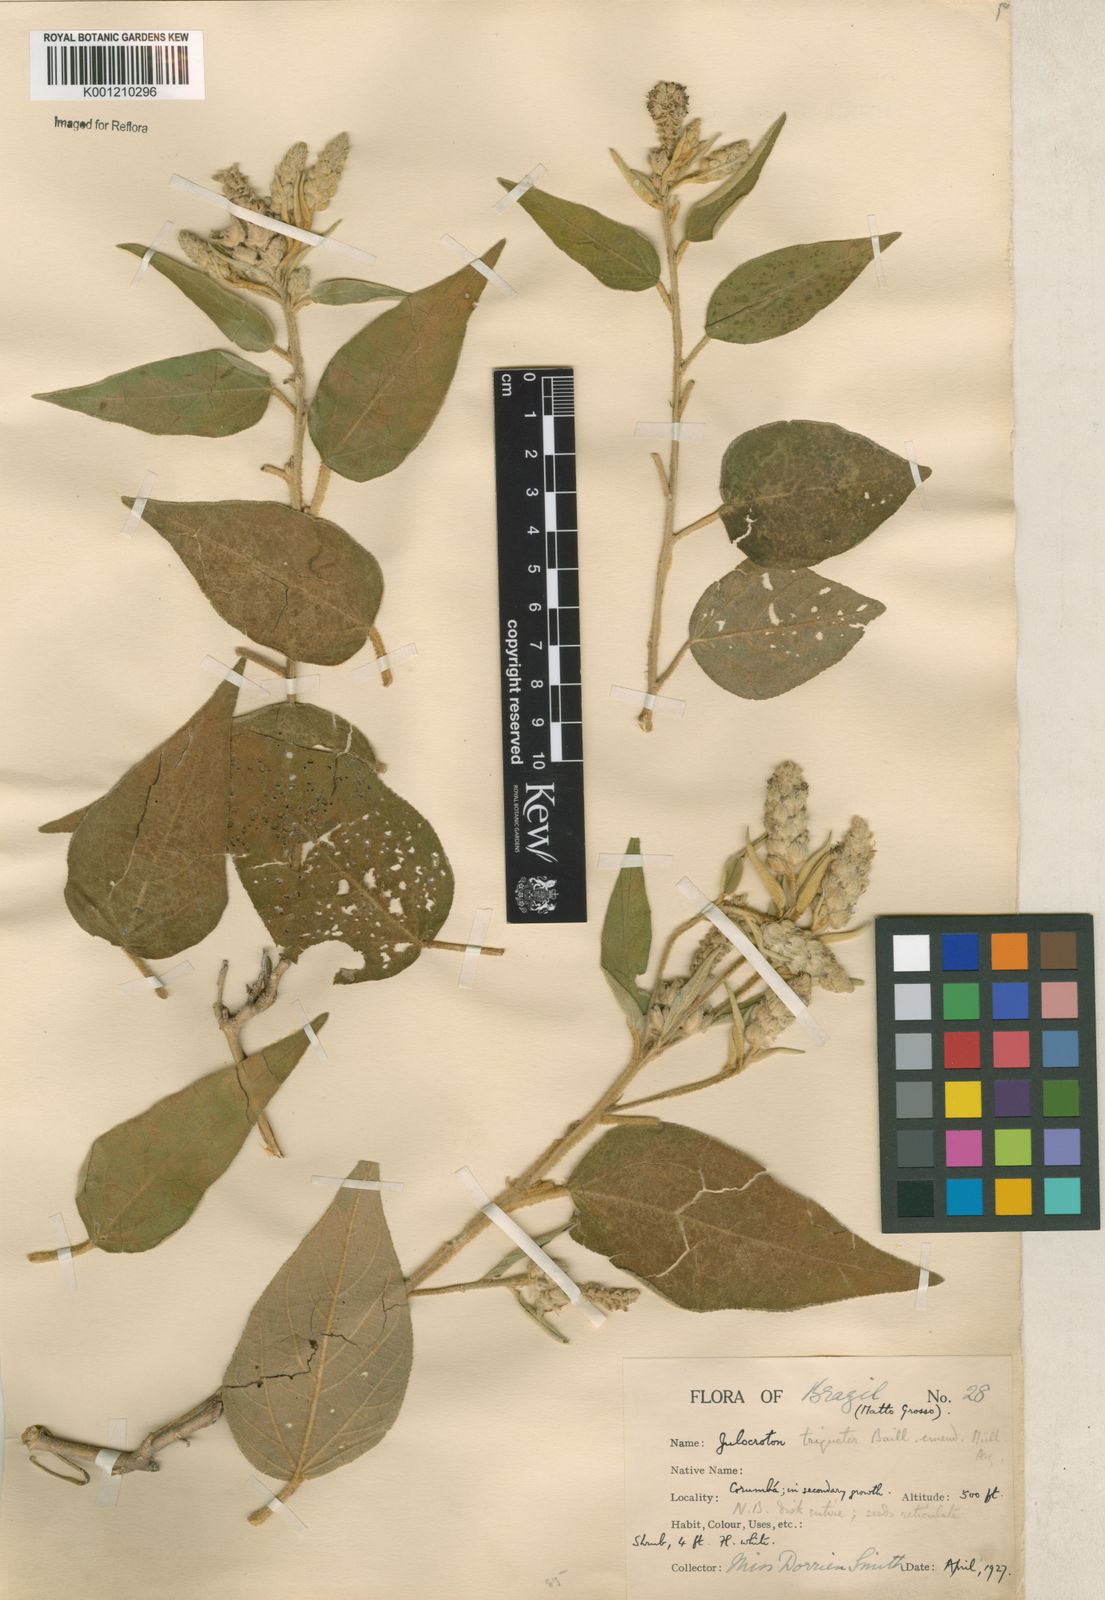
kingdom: Plantae
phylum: Tracheophyta
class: Magnoliopsida
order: Malpighiales
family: Euphorbiaceae
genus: Croton
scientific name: Croton triqueter
